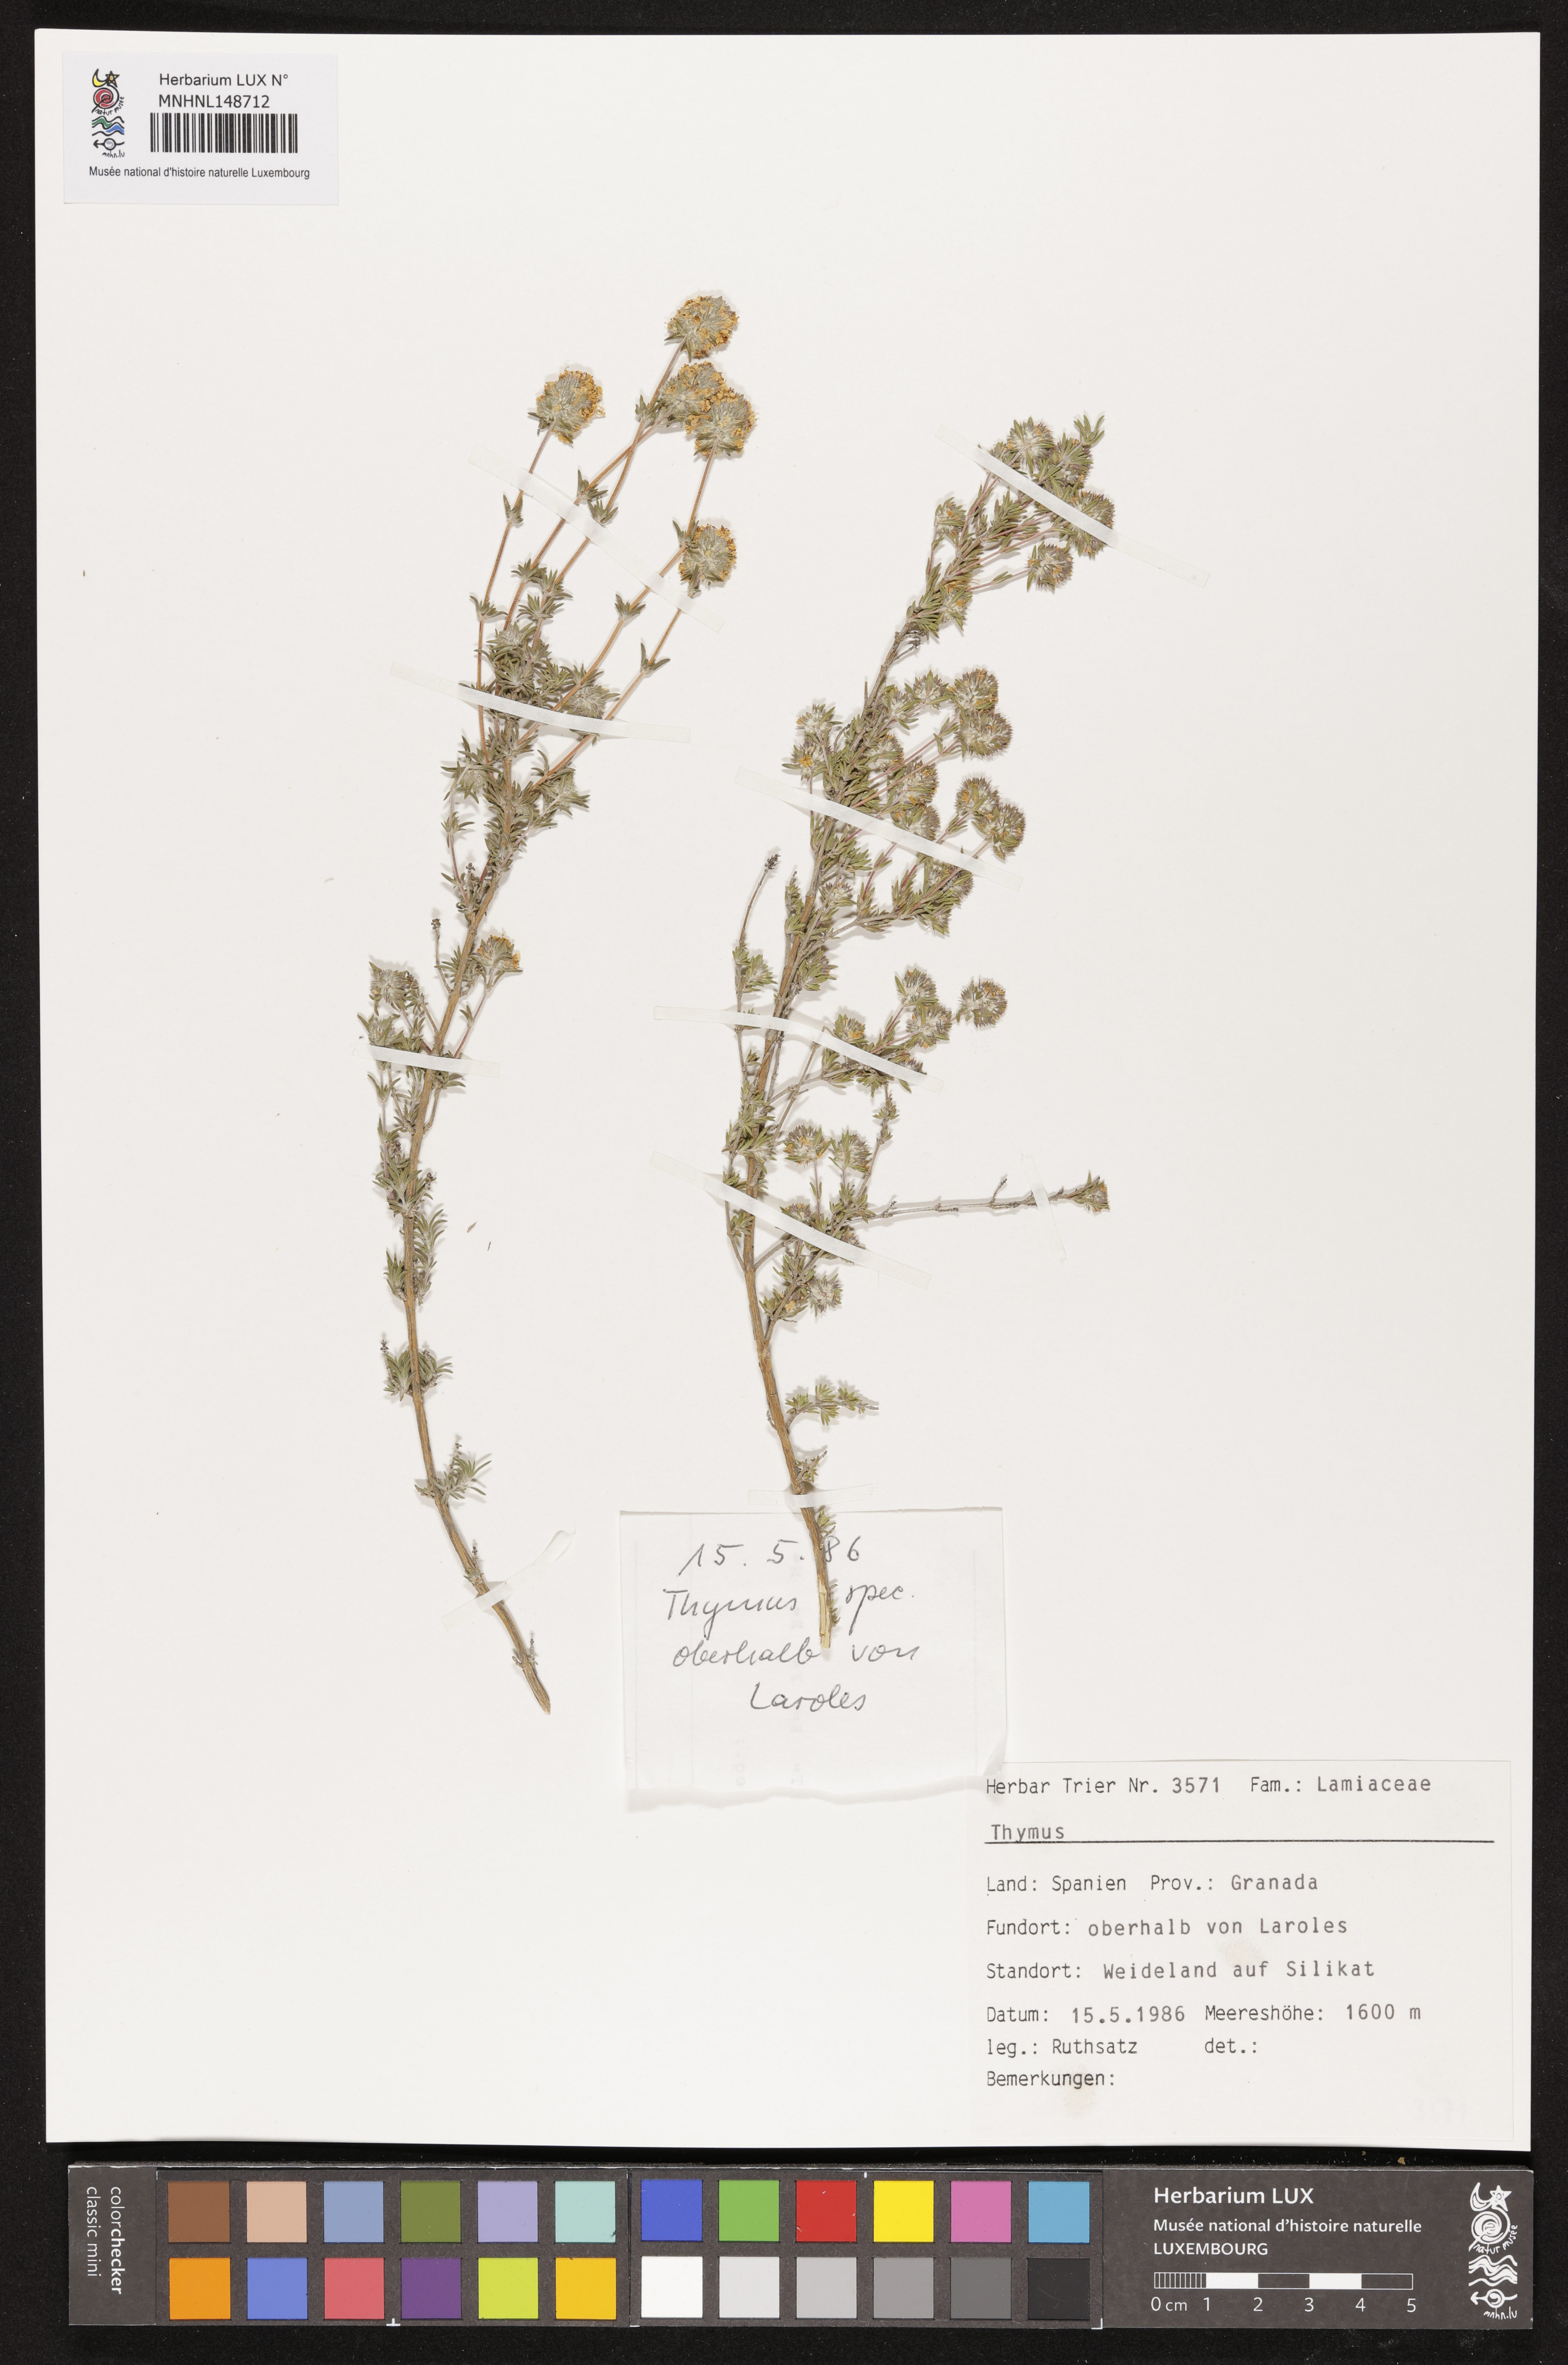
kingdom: Plantae
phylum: Tracheophyta
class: Magnoliopsida
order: Lamiales
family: Lamiaceae
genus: Thymus
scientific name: Thymus
